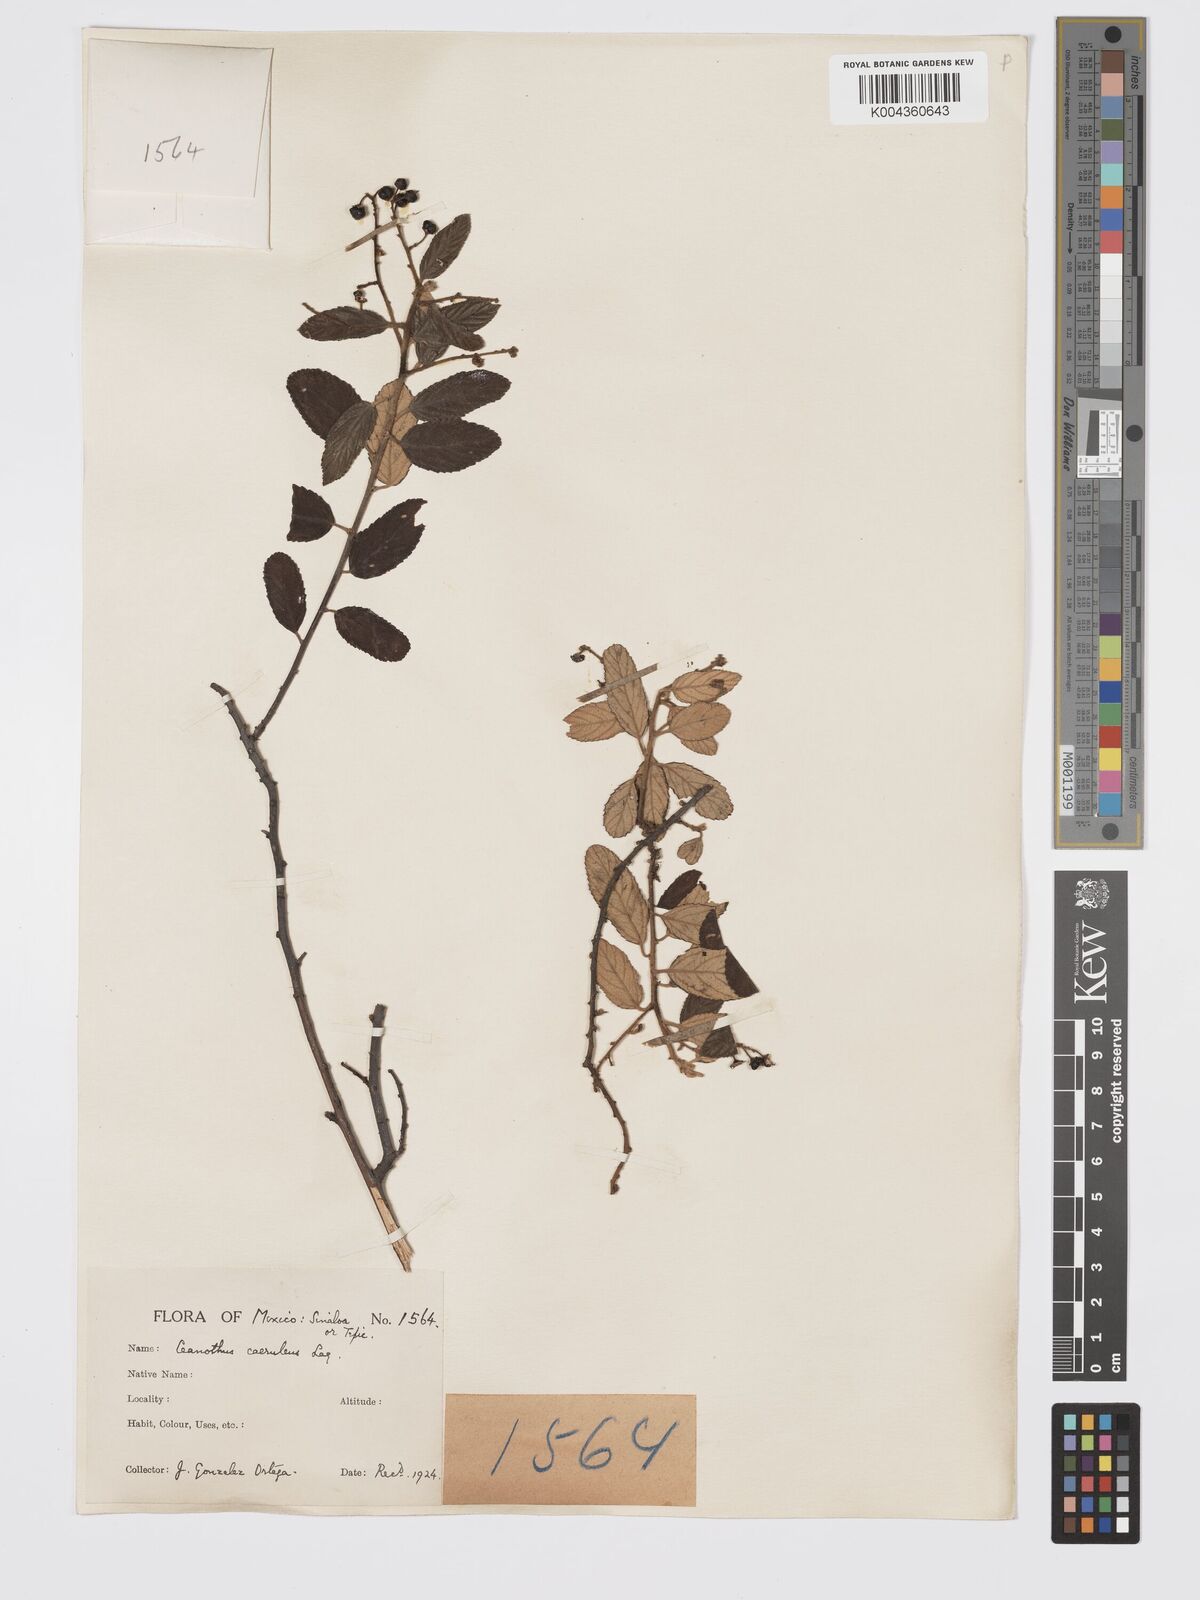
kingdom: Plantae
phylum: Tracheophyta
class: Magnoliopsida
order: Rosales
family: Rhamnaceae
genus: Ceanothus
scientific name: Ceanothus caeruleus
